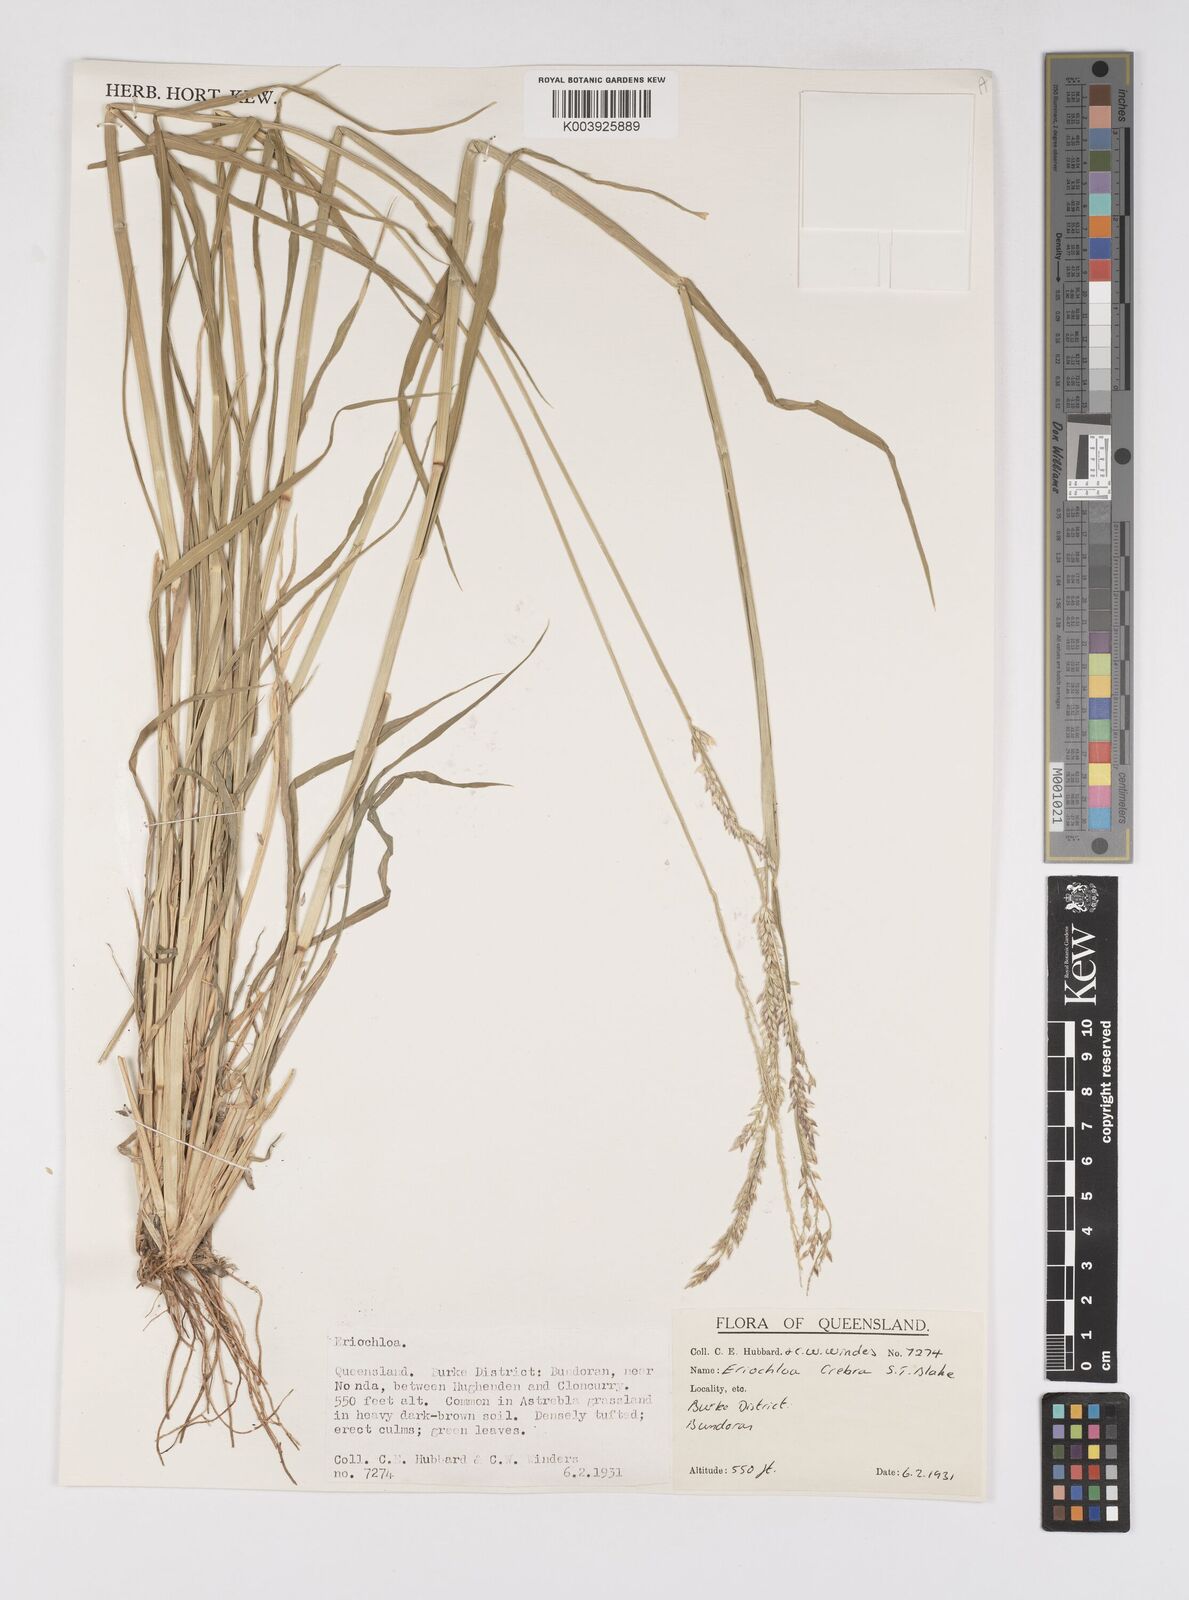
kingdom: Plantae
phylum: Tracheophyta
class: Liliopsida
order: Poales
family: Poaceae
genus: Eriochloa
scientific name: Eriochloa crebra
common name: Cup grass
